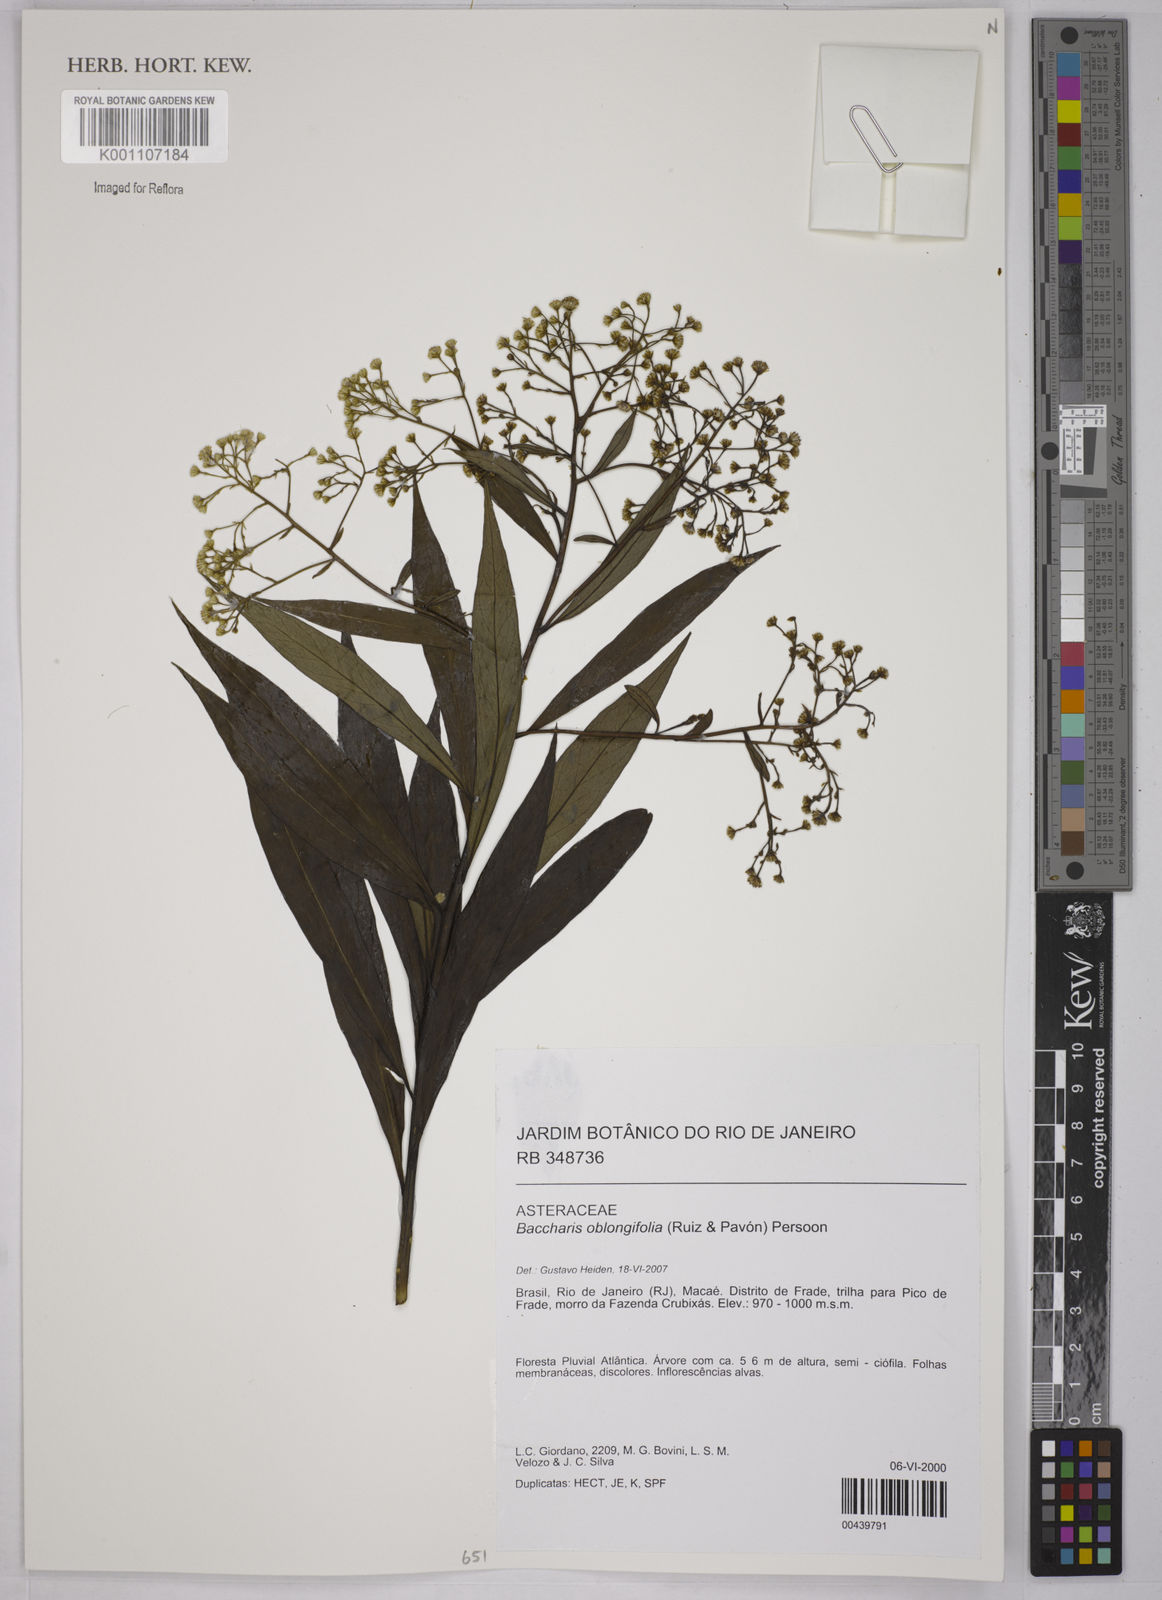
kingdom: Plantae
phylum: Tracheophyta
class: Magnoliopsida
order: Asterales
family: Asteraceae
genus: Baccharis
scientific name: Baccharis oblongifolia
